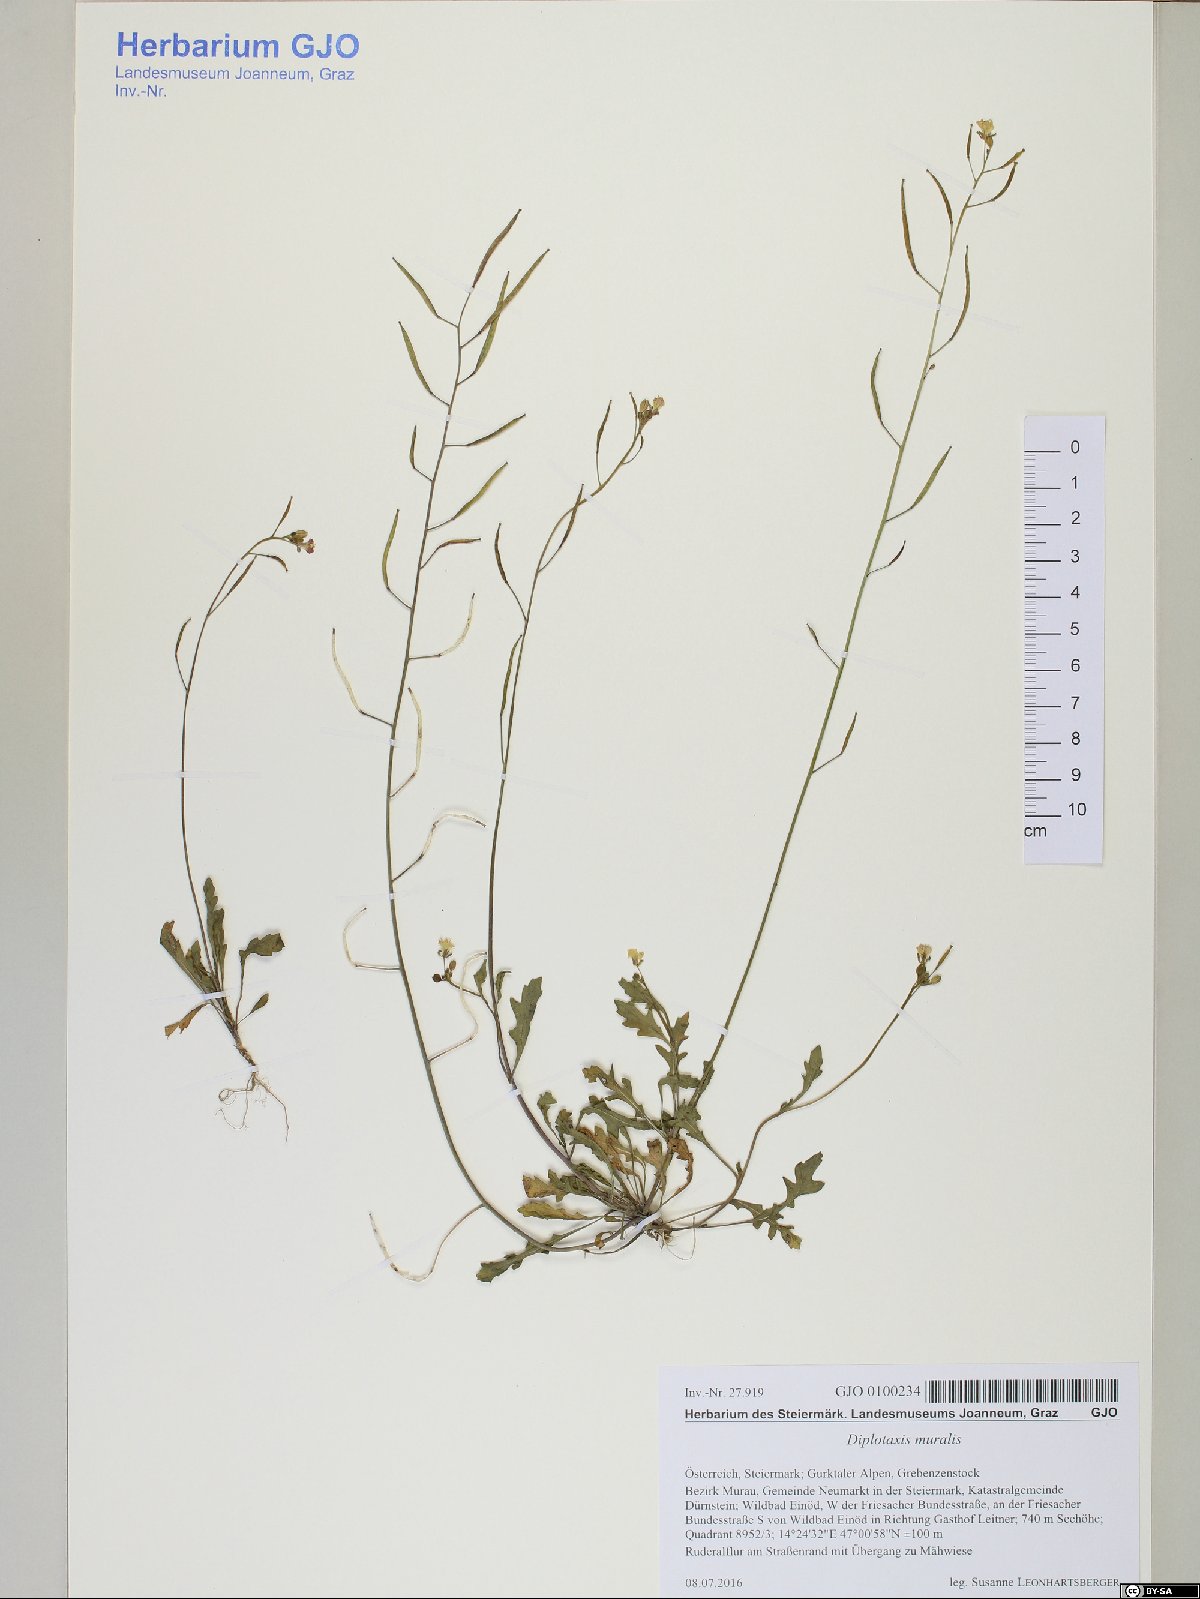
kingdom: Plantae
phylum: Tracheophyta
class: Magnoliopsida
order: Brassicales
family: Brassicaceae
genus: Diplotaxis
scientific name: Diplotaxis muralis
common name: Annual wall-rocket
